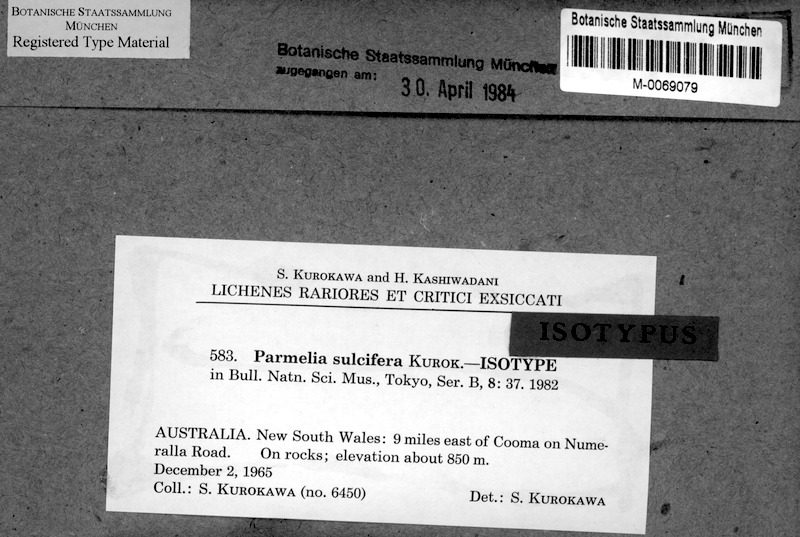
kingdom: Fungi
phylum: Ascomycota
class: Lecanoromycetes
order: Lecanorales
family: Parmeliaceae
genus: Xanthoparmelia
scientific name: Xanthoparmelia sulcifera
